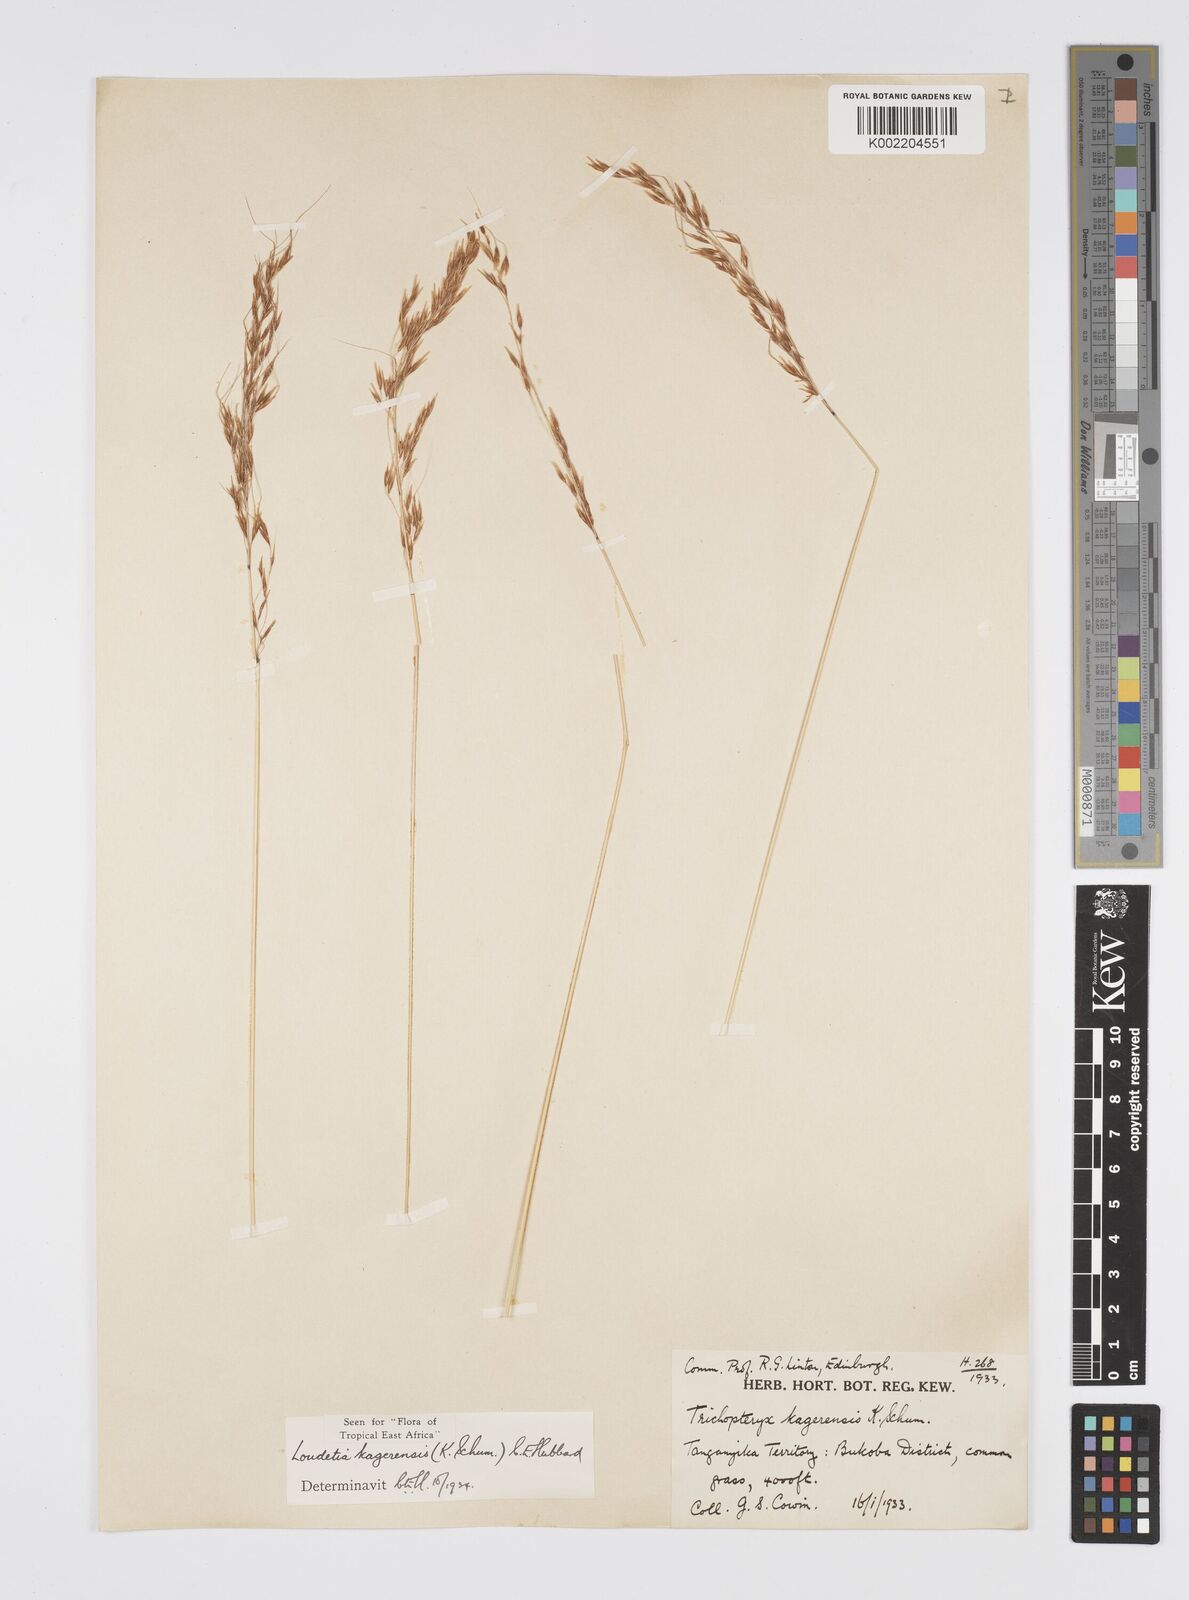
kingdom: Plantae
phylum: Tracheophyta
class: Liliopsida
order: Poales
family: Poaceae
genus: Loudetia
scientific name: Loudetia kagerensis
